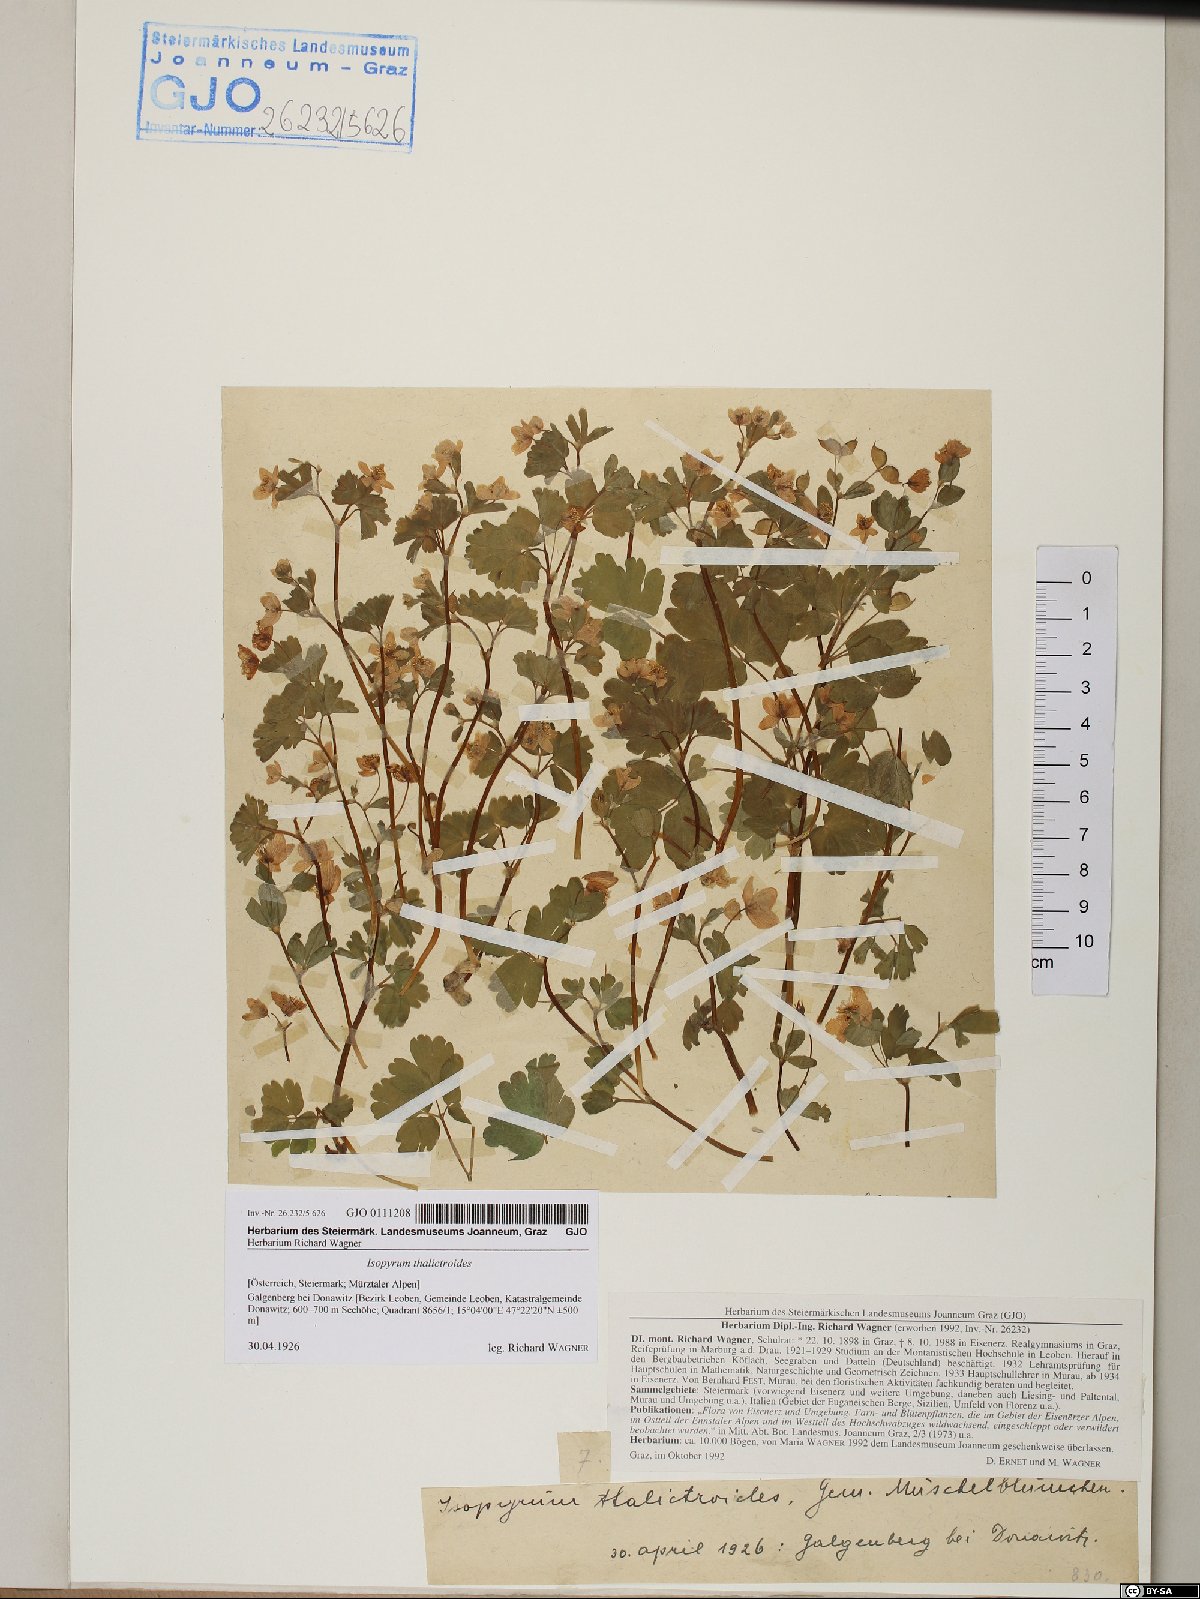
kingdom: Plantae
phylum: Tracheophyta
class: Magnoliopsida
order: Ranunculales
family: Ranunculaceae
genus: Isopyrum
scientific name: Isopyrum thalictroides
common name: Isopyrum
